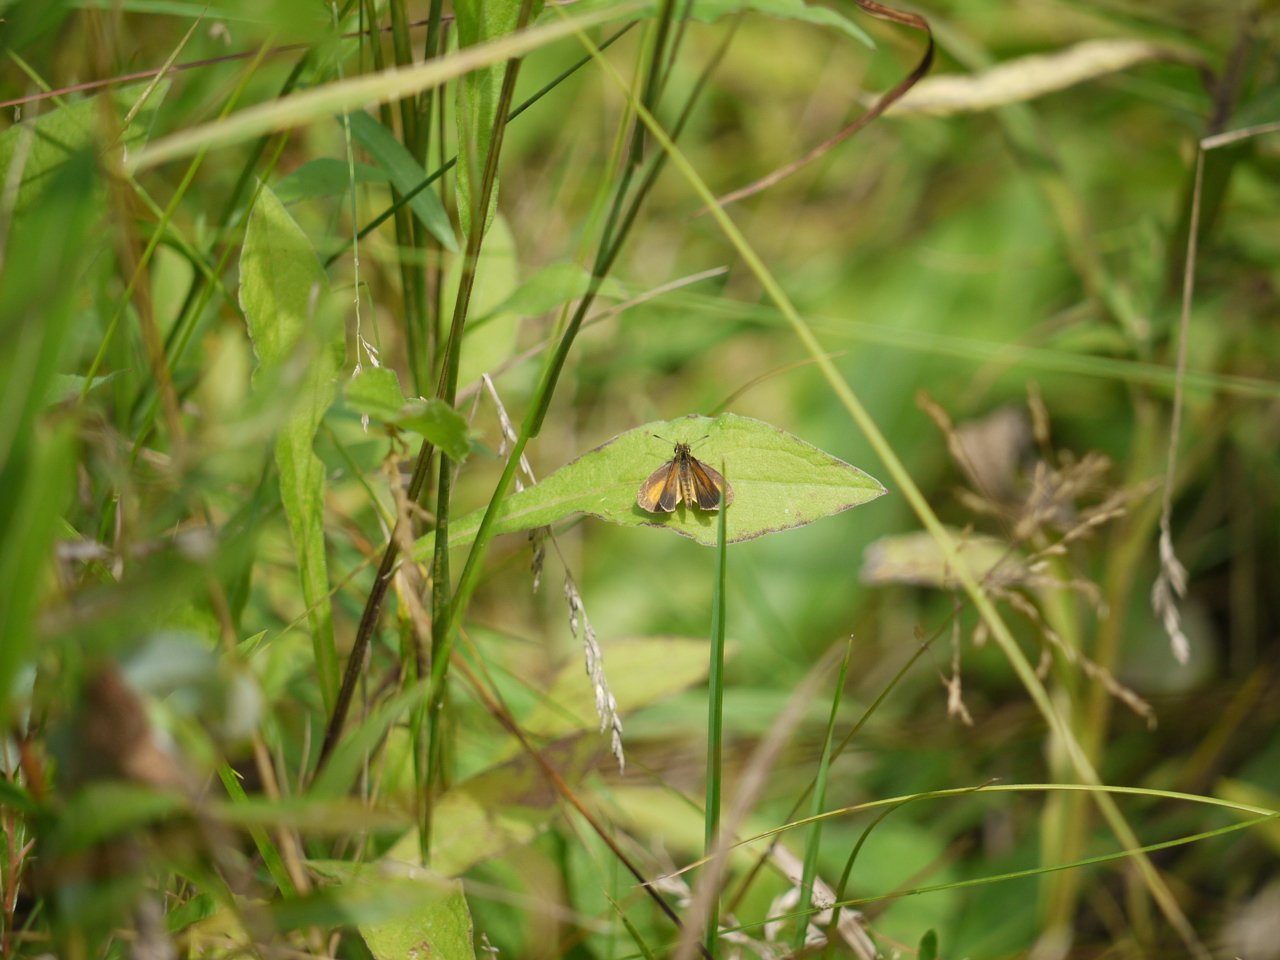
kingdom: Animalia
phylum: Arthropoda
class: Insecta
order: Lepidoptera
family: Hesperiidae
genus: Ancyloxypha
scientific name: Ancyloxypha numitor
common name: Least Skipper
